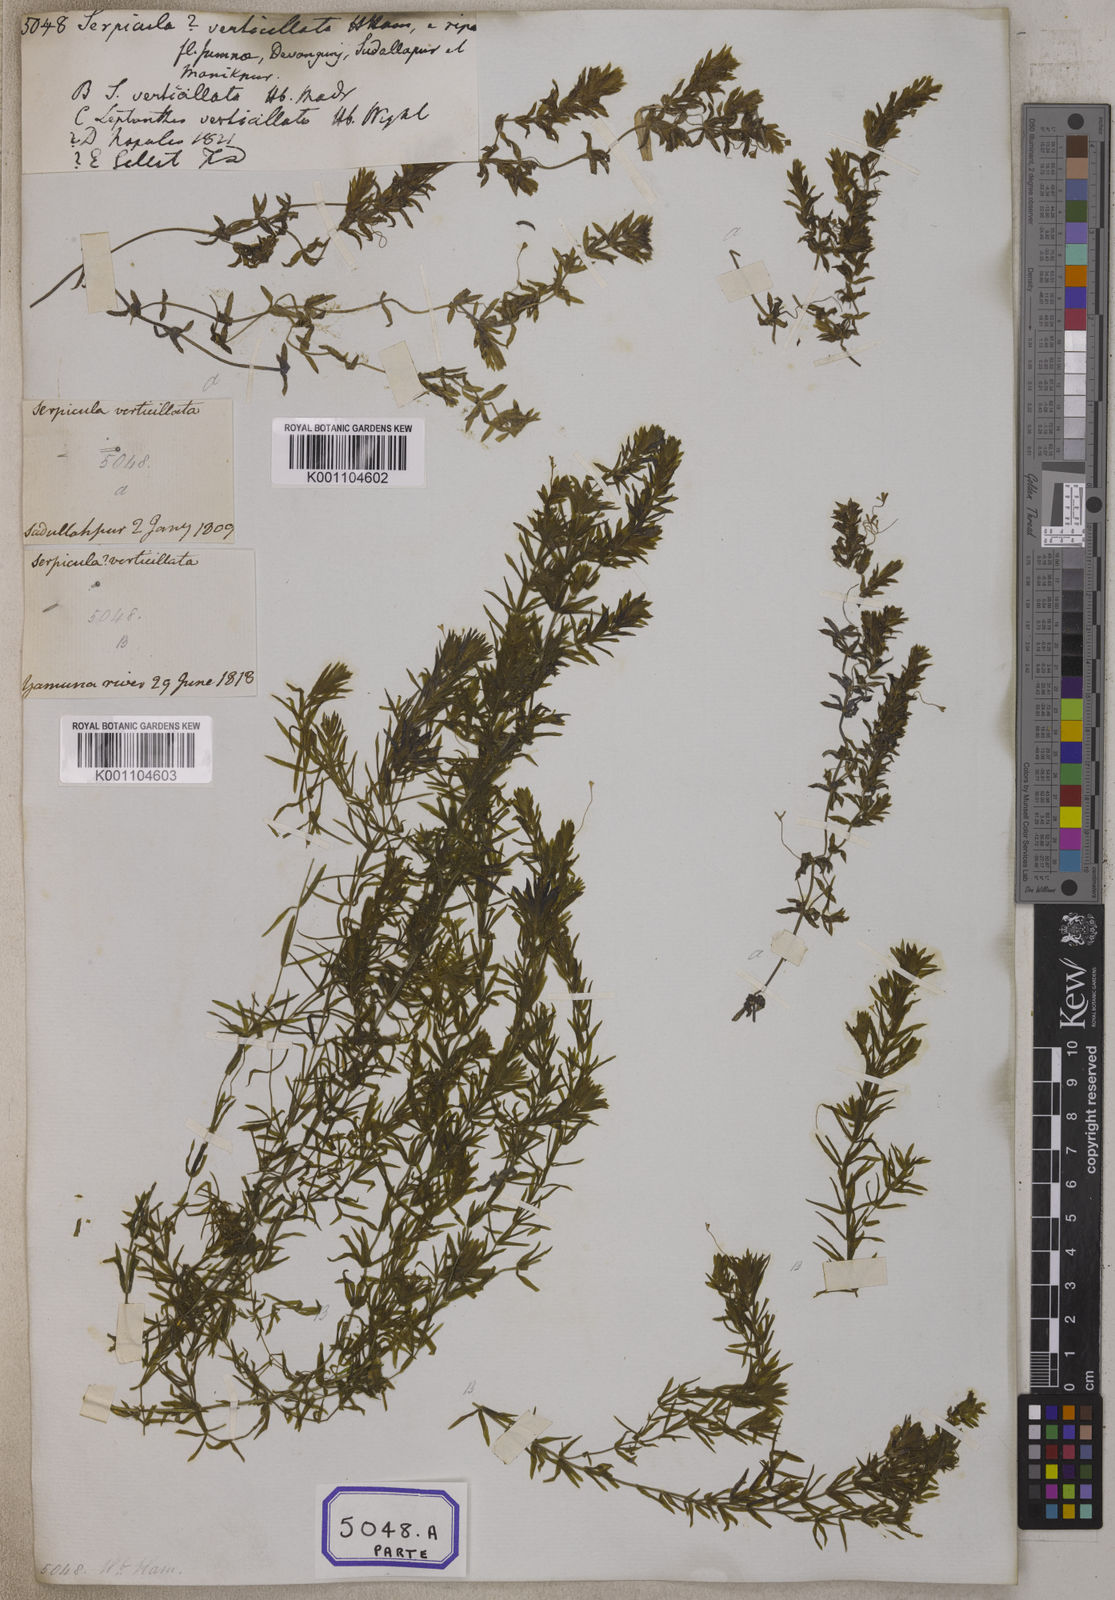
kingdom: Plantae
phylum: Tracheophyta
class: Magnoliopsida
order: Saxifragales
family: Haloragaceae
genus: Serpicula
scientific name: Serpicula
